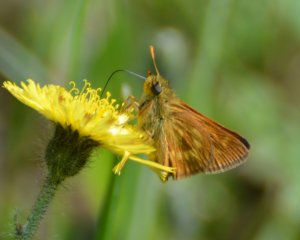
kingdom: Animalia
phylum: Arthropoda
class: Insecta
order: Lepidoptera
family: Hesperiidae
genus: Polites
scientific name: Polites
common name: Long Dash Skipper
